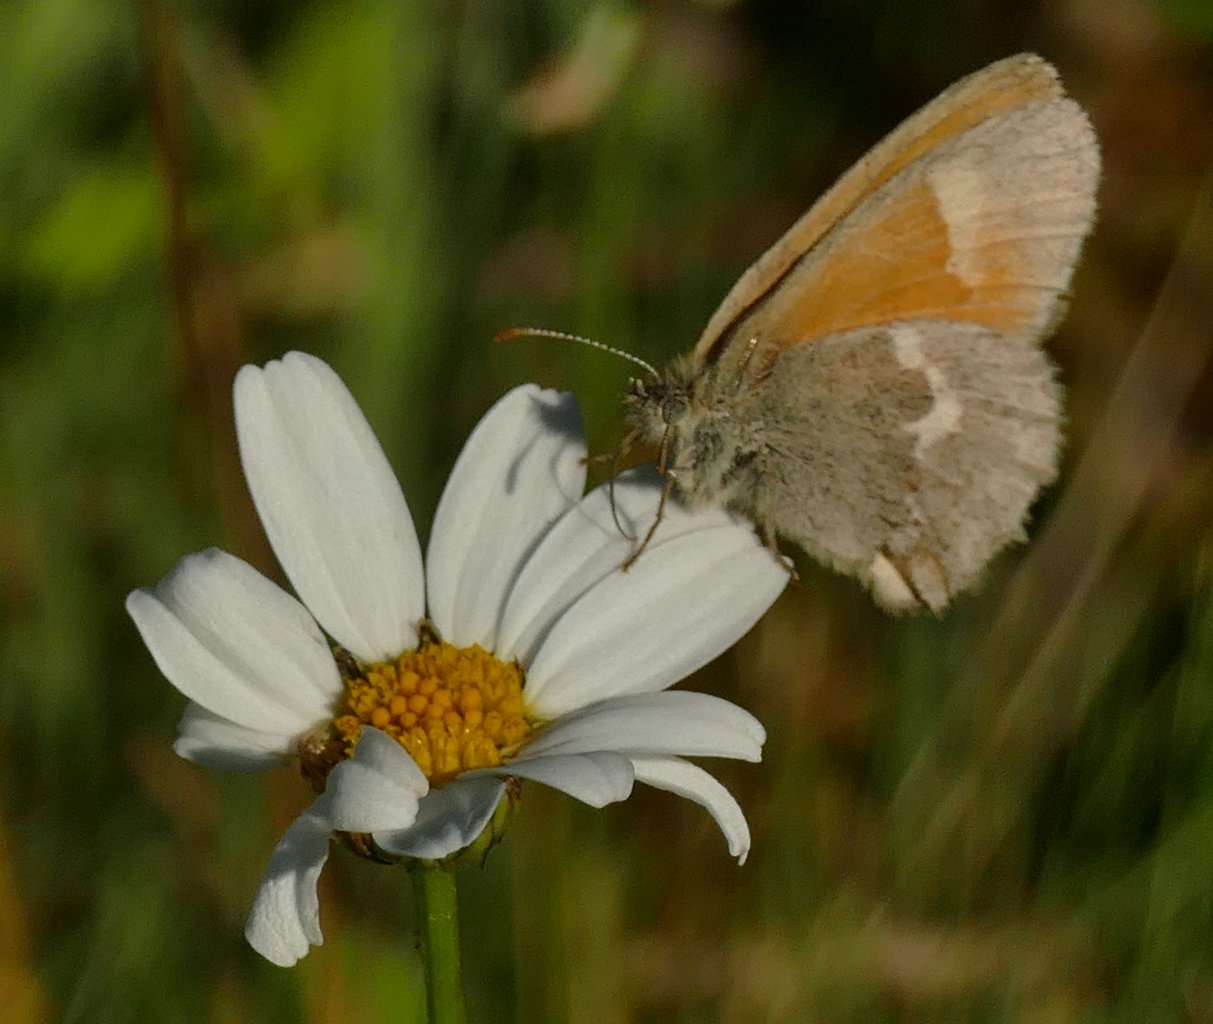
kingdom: Animalia
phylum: Arthropoda
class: Insecta
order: Lepidoptera
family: Nymphalidae
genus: Coenonympha
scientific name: Coenonympha tullia
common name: Large Heath
